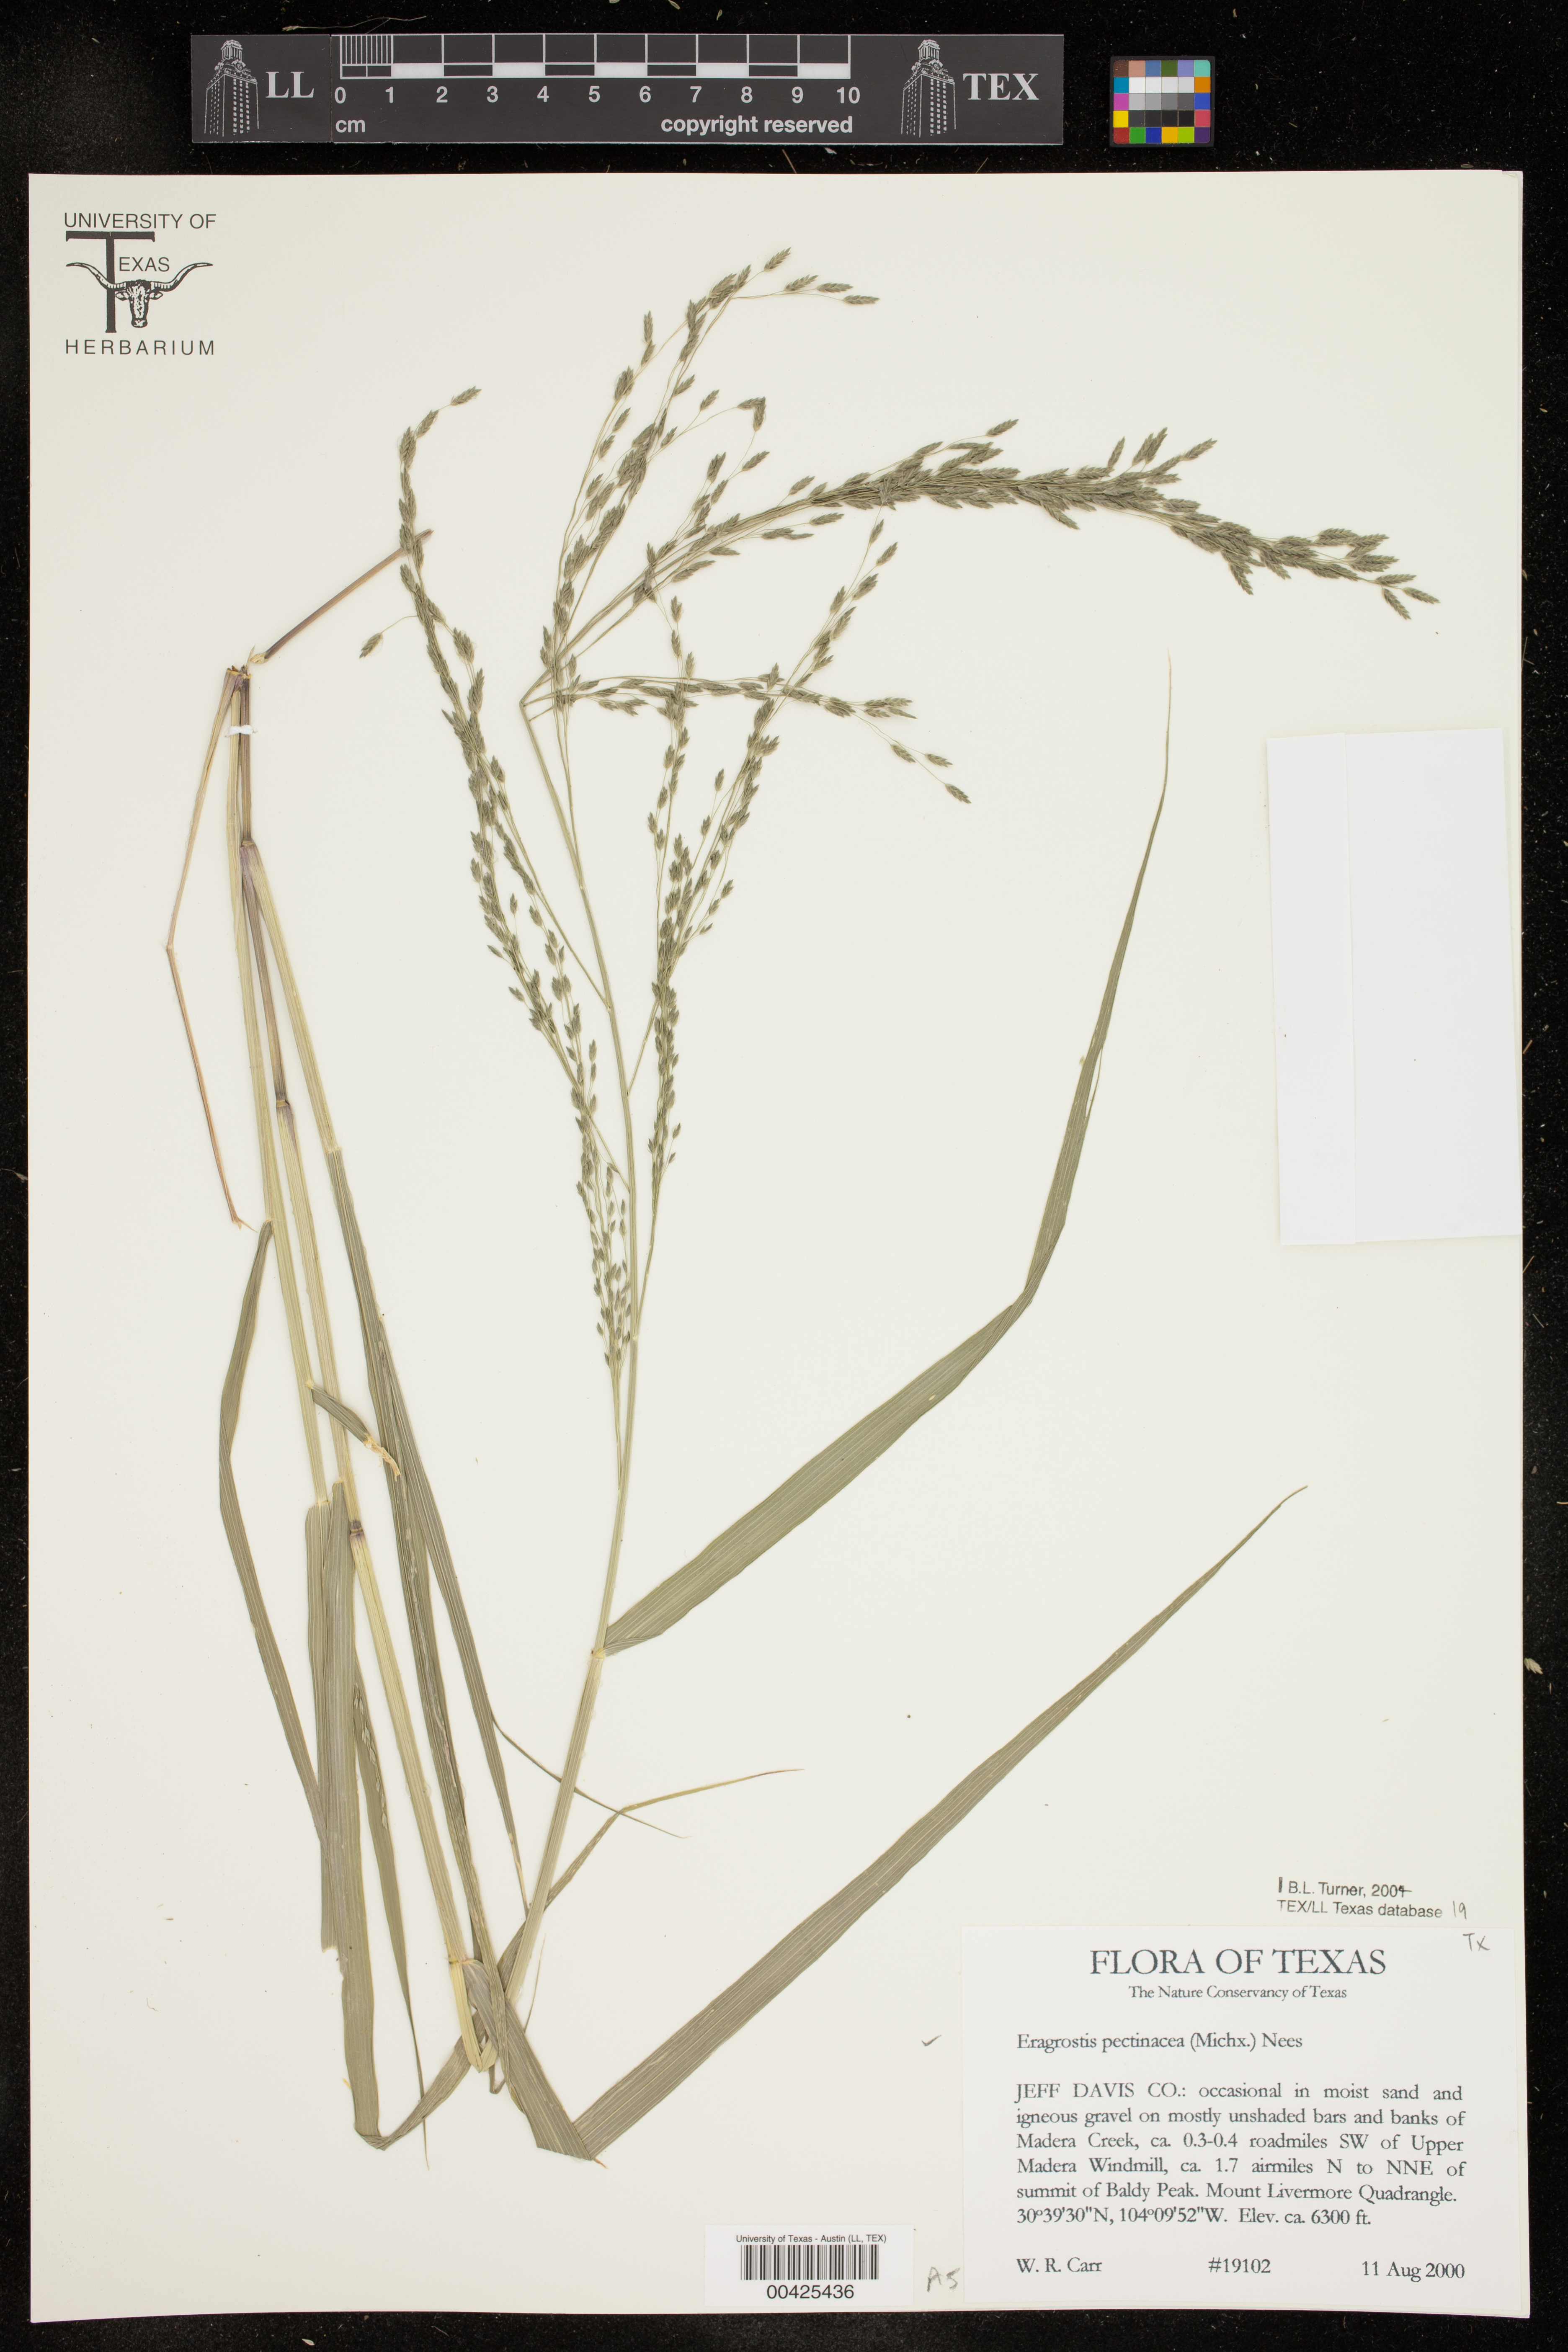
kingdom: Plantae
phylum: Tracheophyta
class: Liliopsida
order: Poales
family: Poaceae
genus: Eragrostis
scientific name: Eragrostis pectinacea
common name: Tufted lovegrass
